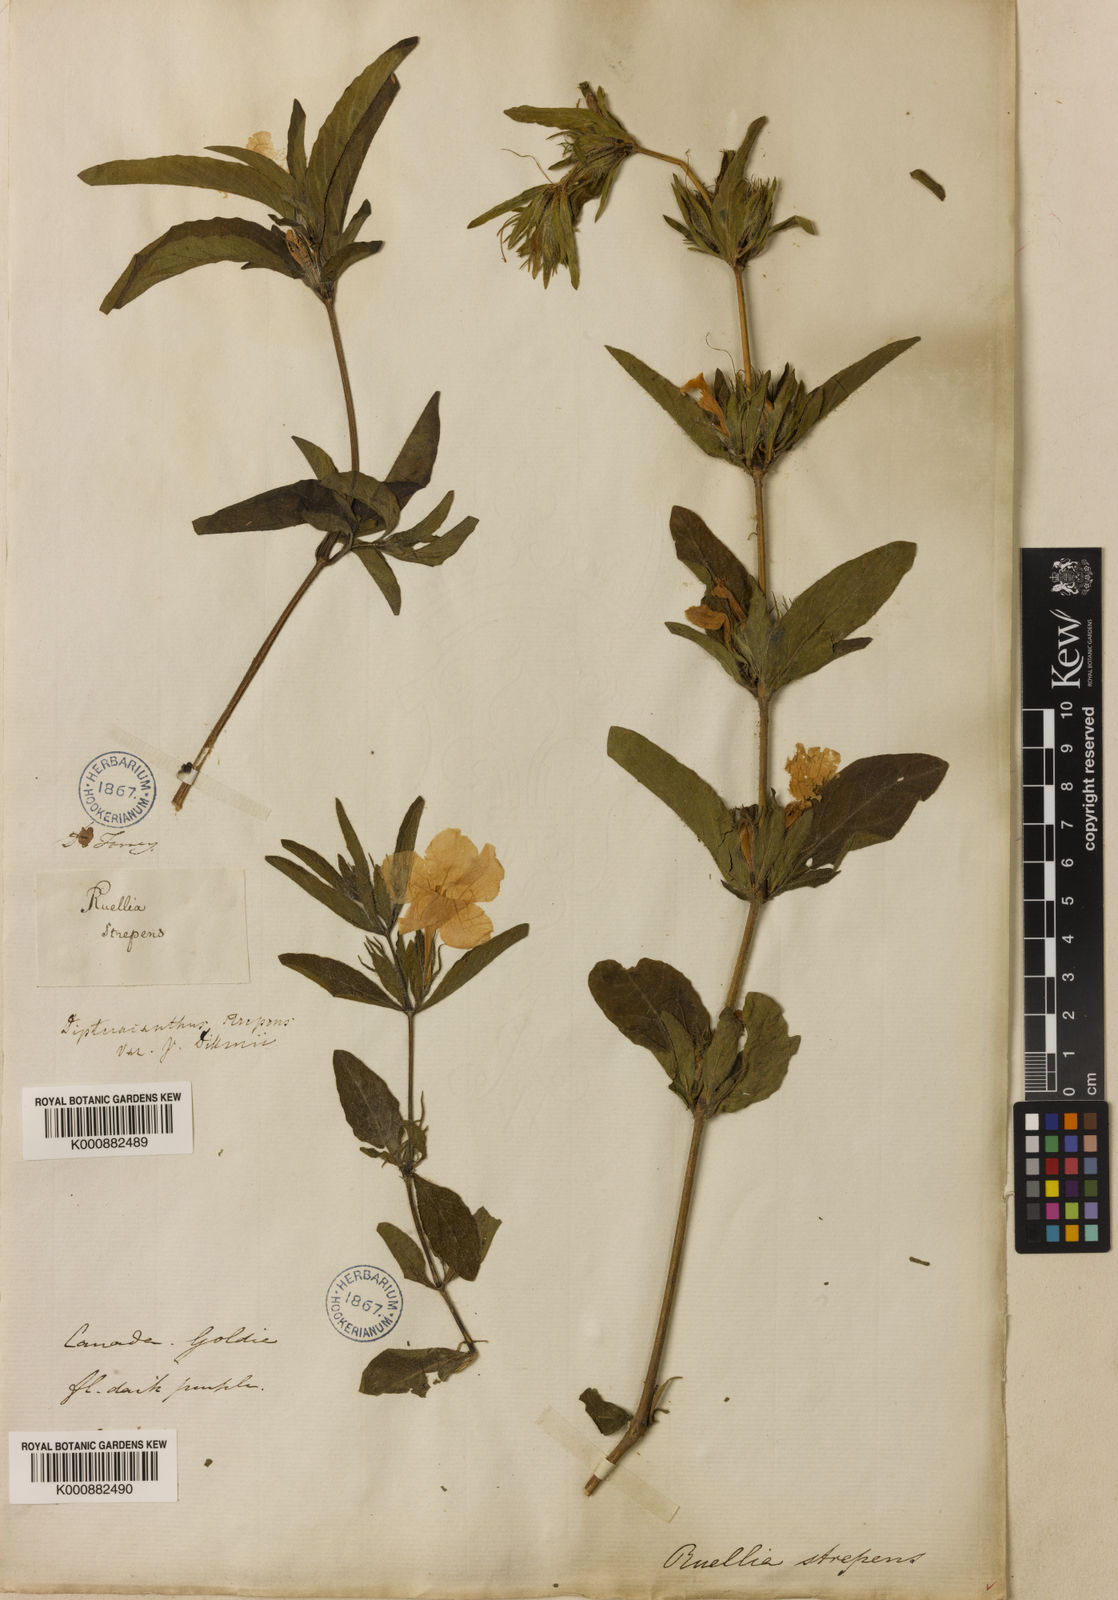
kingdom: Plantae
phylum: Tracheophyta
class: Magnoliopsida
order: Lamiales
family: Acanthaceae
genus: Ruellia
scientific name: Ruellia strepens
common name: Limestone wild petunia
